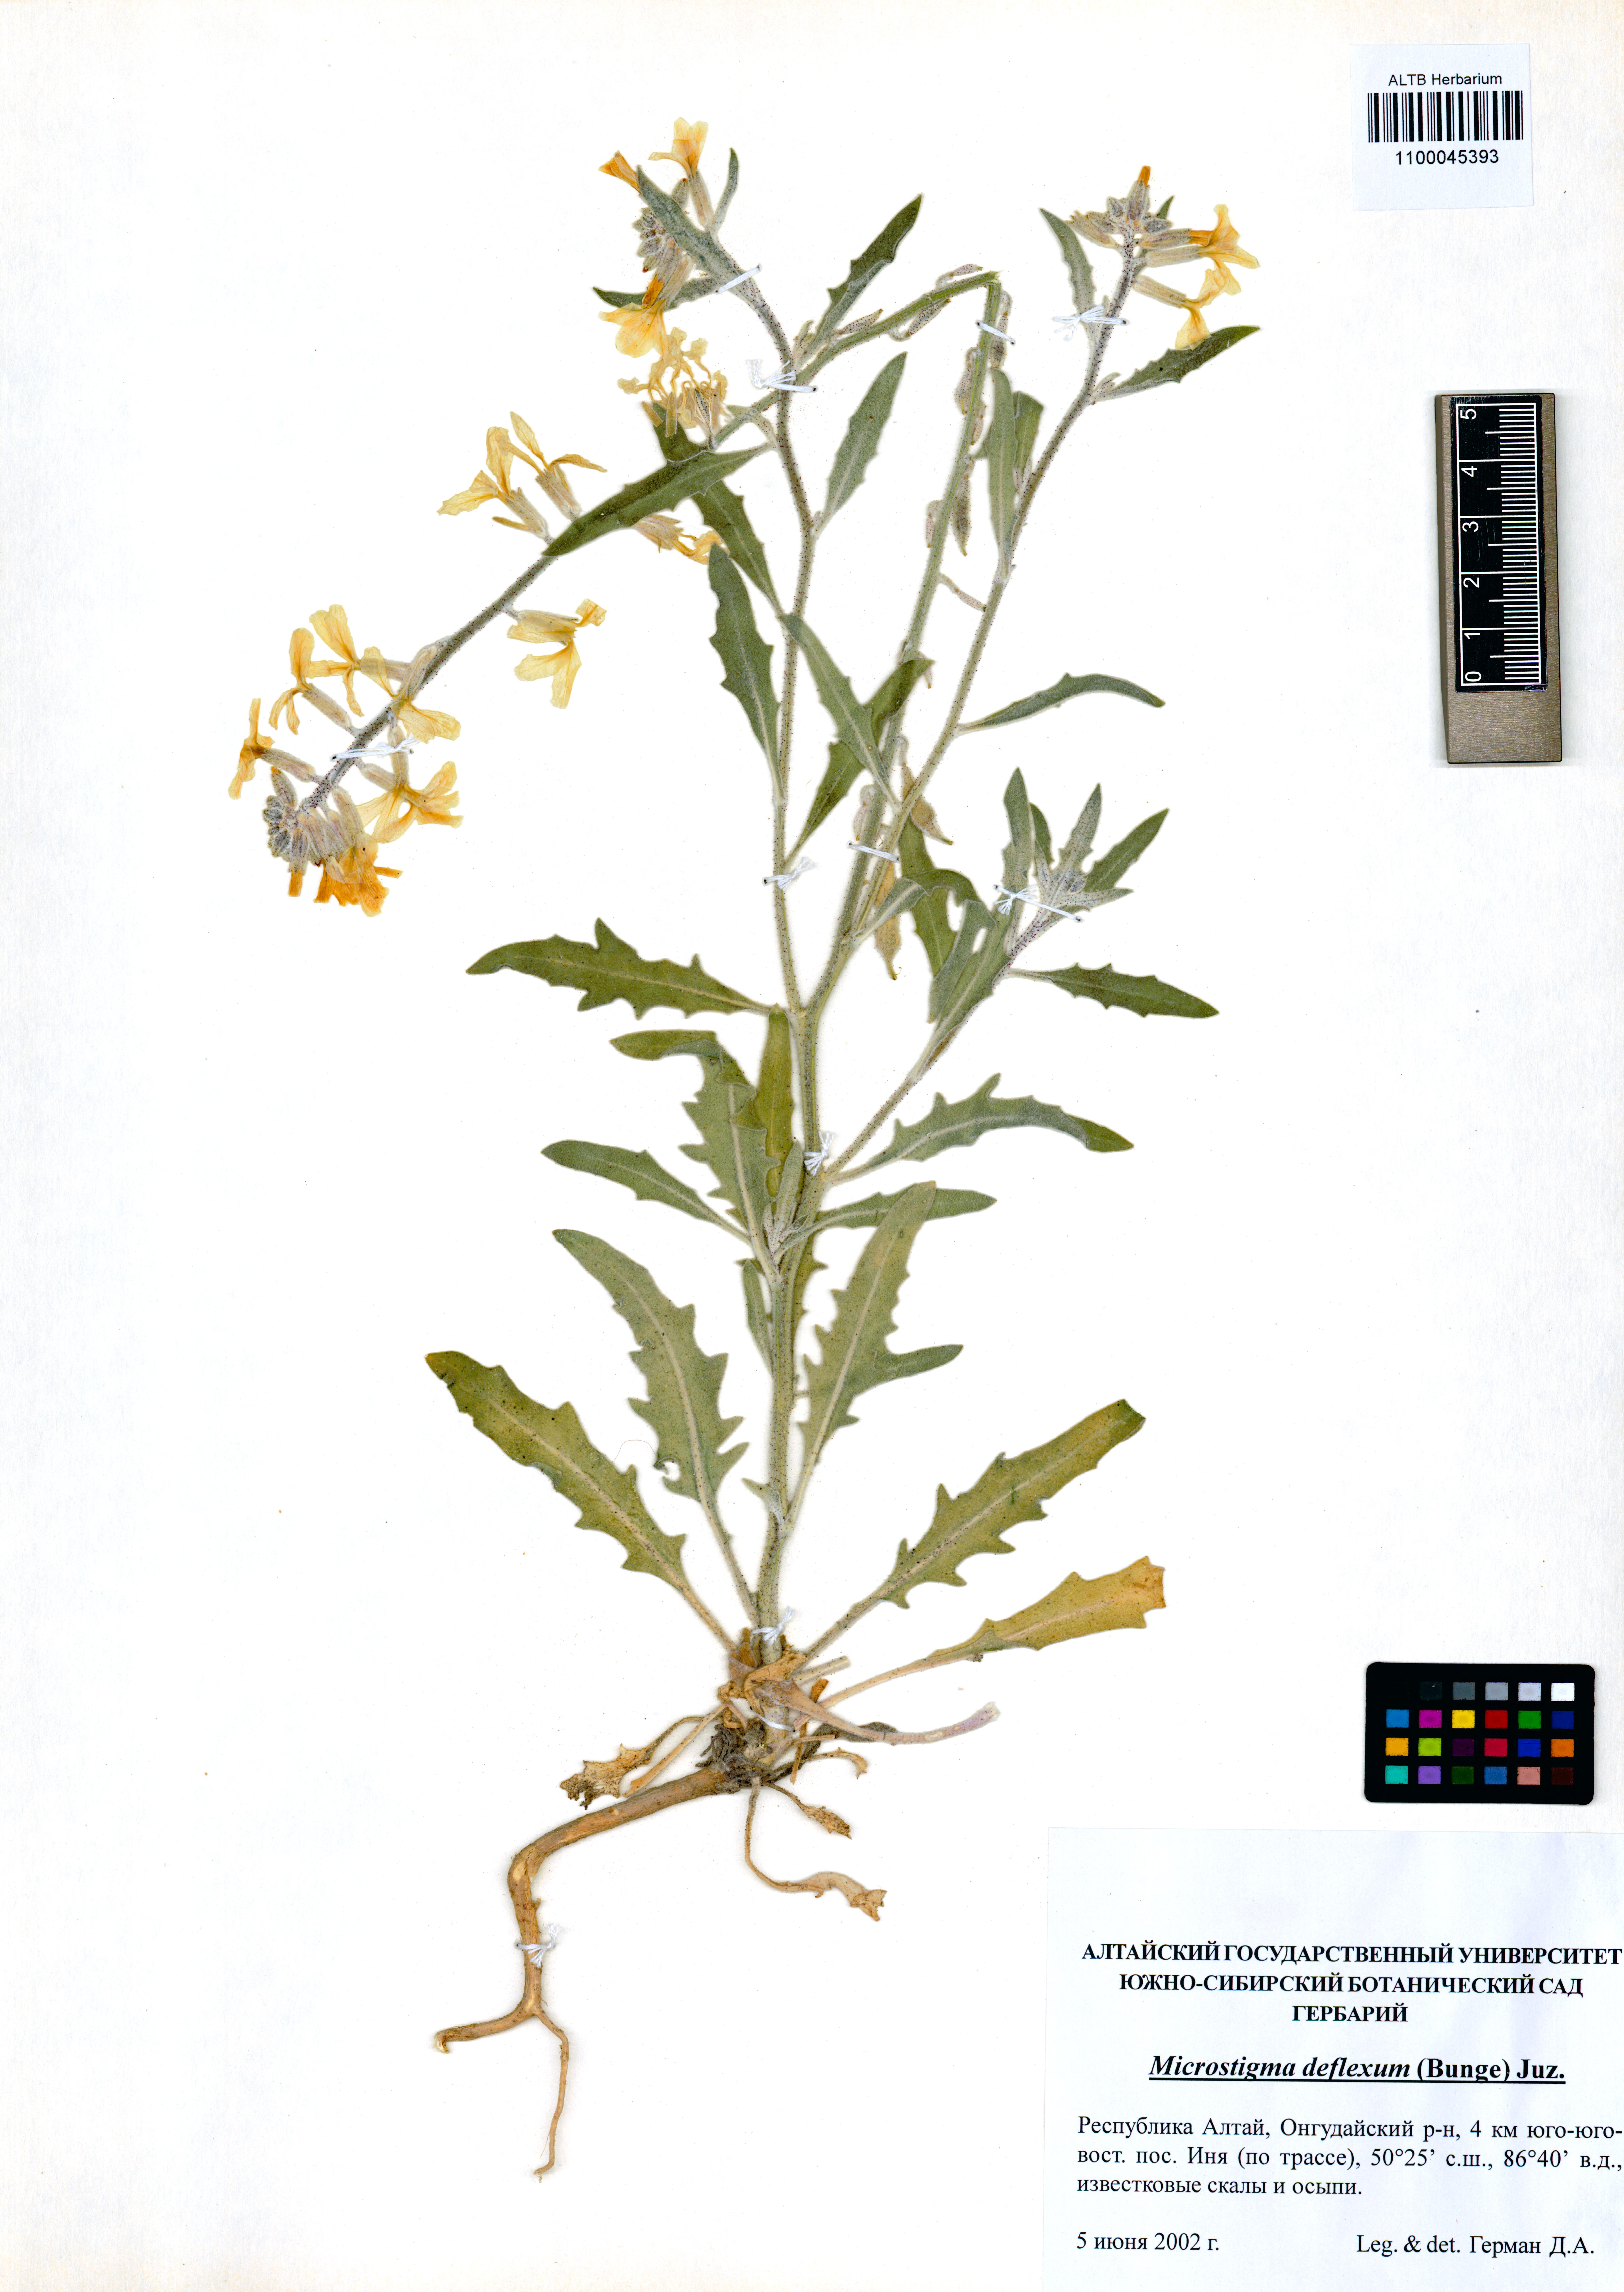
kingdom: Plantae
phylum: Tracheophyta
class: Magnoliopsida
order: Brassicales
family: Brassicaceae
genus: Microstigma
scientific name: Microstigma deflexum
